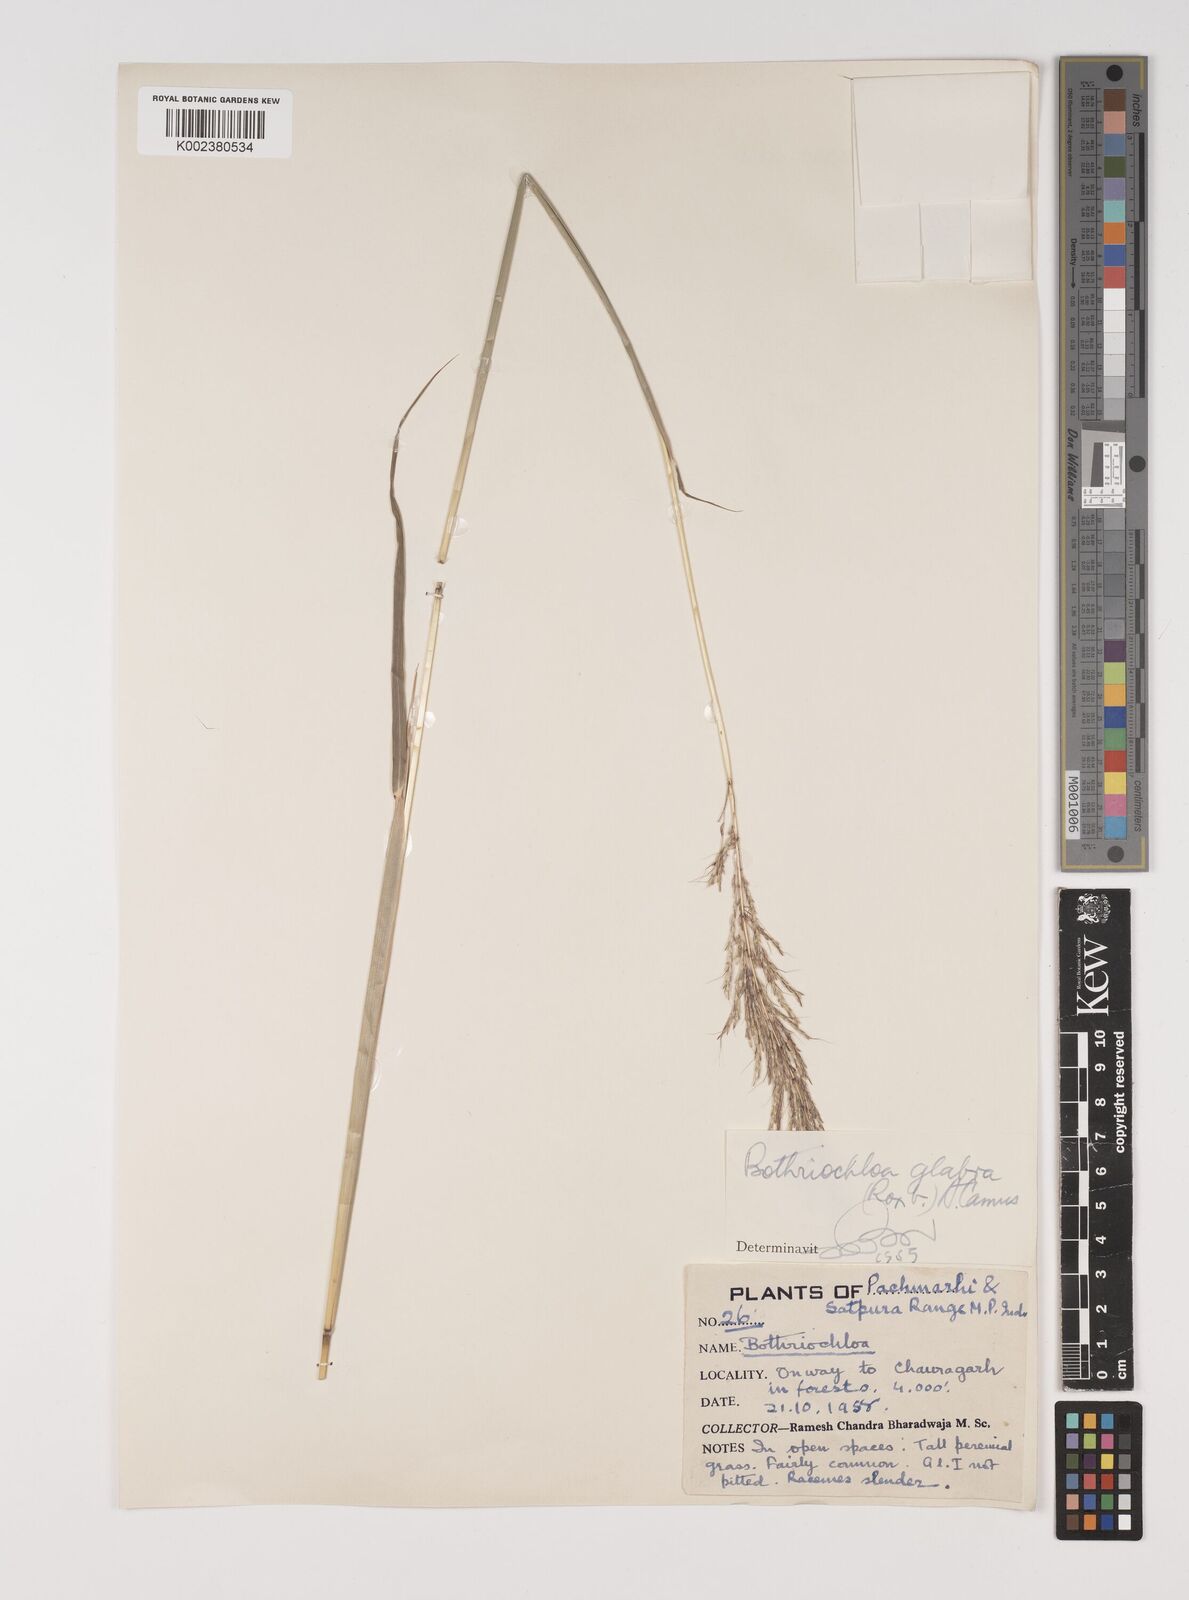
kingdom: Plantae
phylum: Tracheophyta
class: Liliopsida
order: Poales
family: Poaceae
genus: Bothriochloa
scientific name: Bothriochloa bladhii
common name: Caucasian bluestem
